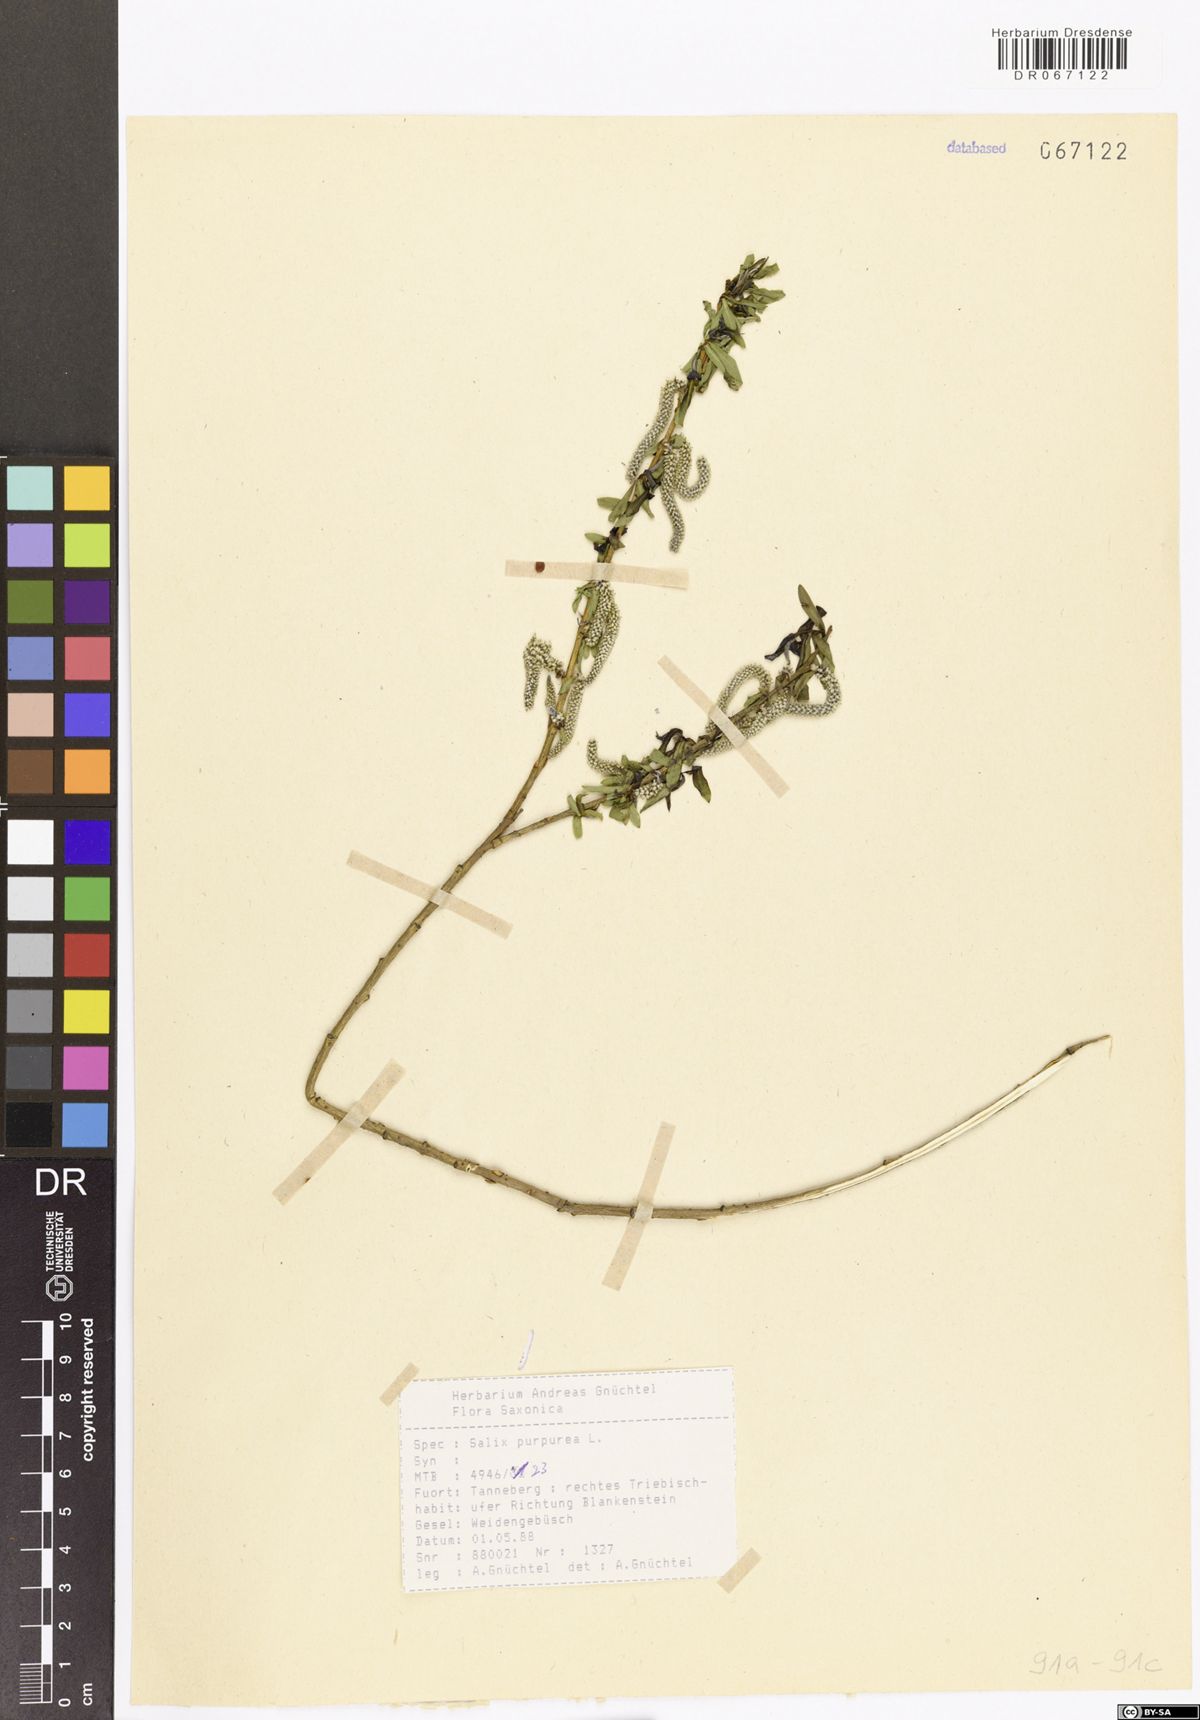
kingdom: Plantae
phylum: Tracheophyta
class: Magnoliopsida
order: Malpighiales
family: Salicaceae
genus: Salix
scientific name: Salix purpurea
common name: Purple willow
